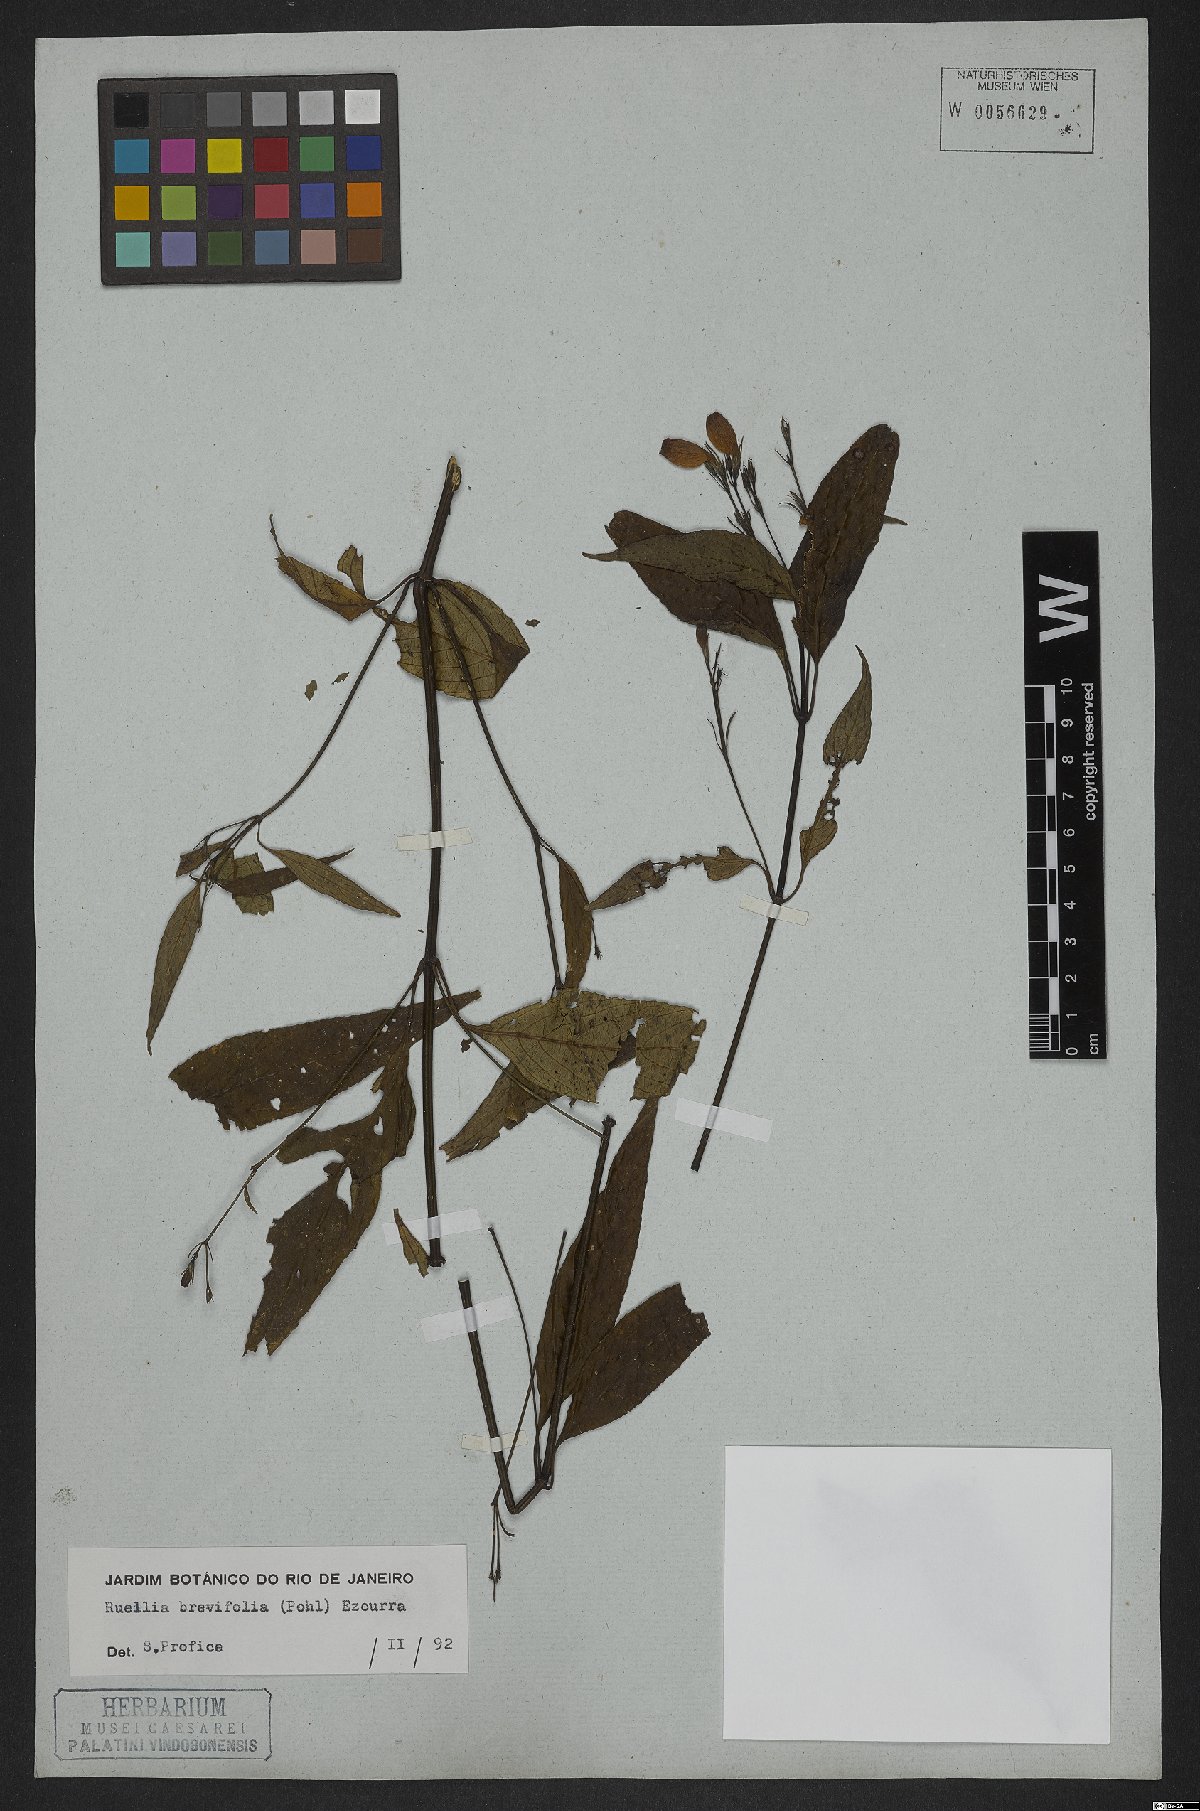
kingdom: Plantae
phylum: Tracheophyta
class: Magnoliopsida
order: Lamiales
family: Acanthaceae
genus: Ruellia
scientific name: Ruellia brevifolia
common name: Tropical wild petunia
